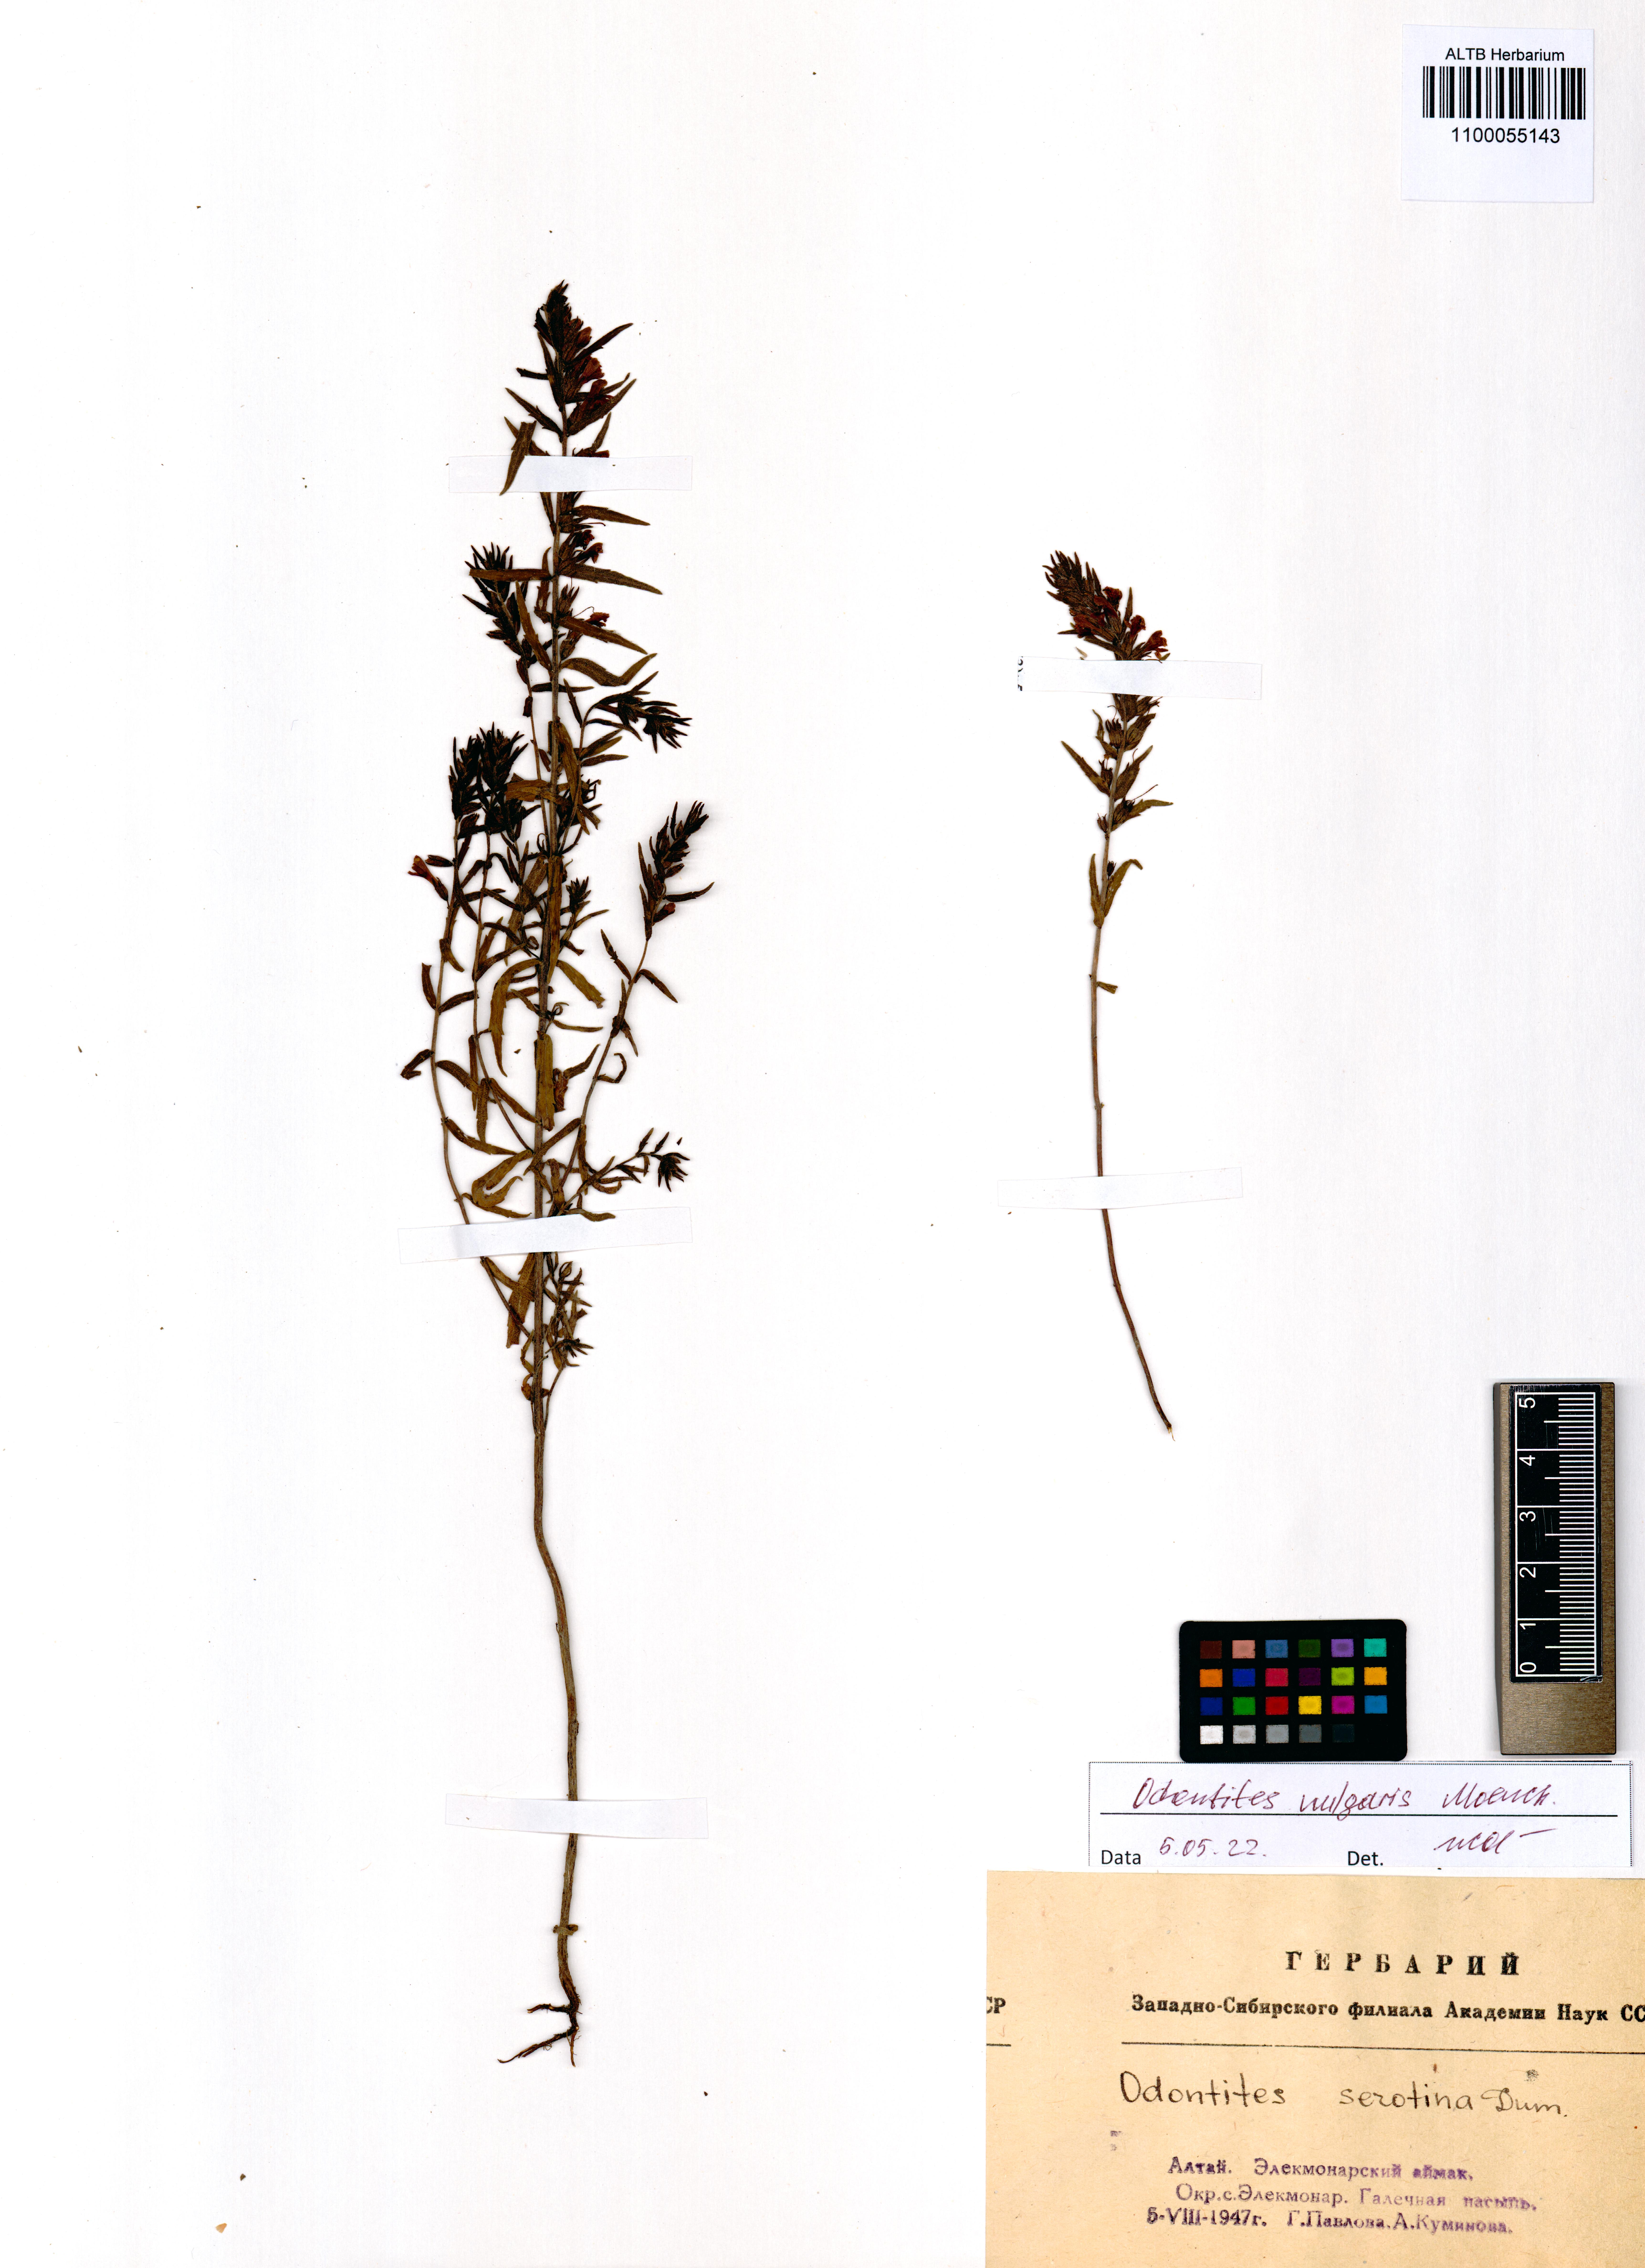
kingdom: Plantae
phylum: Tracheophyta
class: Magnoliopsida
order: Lamiales
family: Orobanchaceae
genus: Odontites
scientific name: Odontites vulgaris
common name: Broomrape
